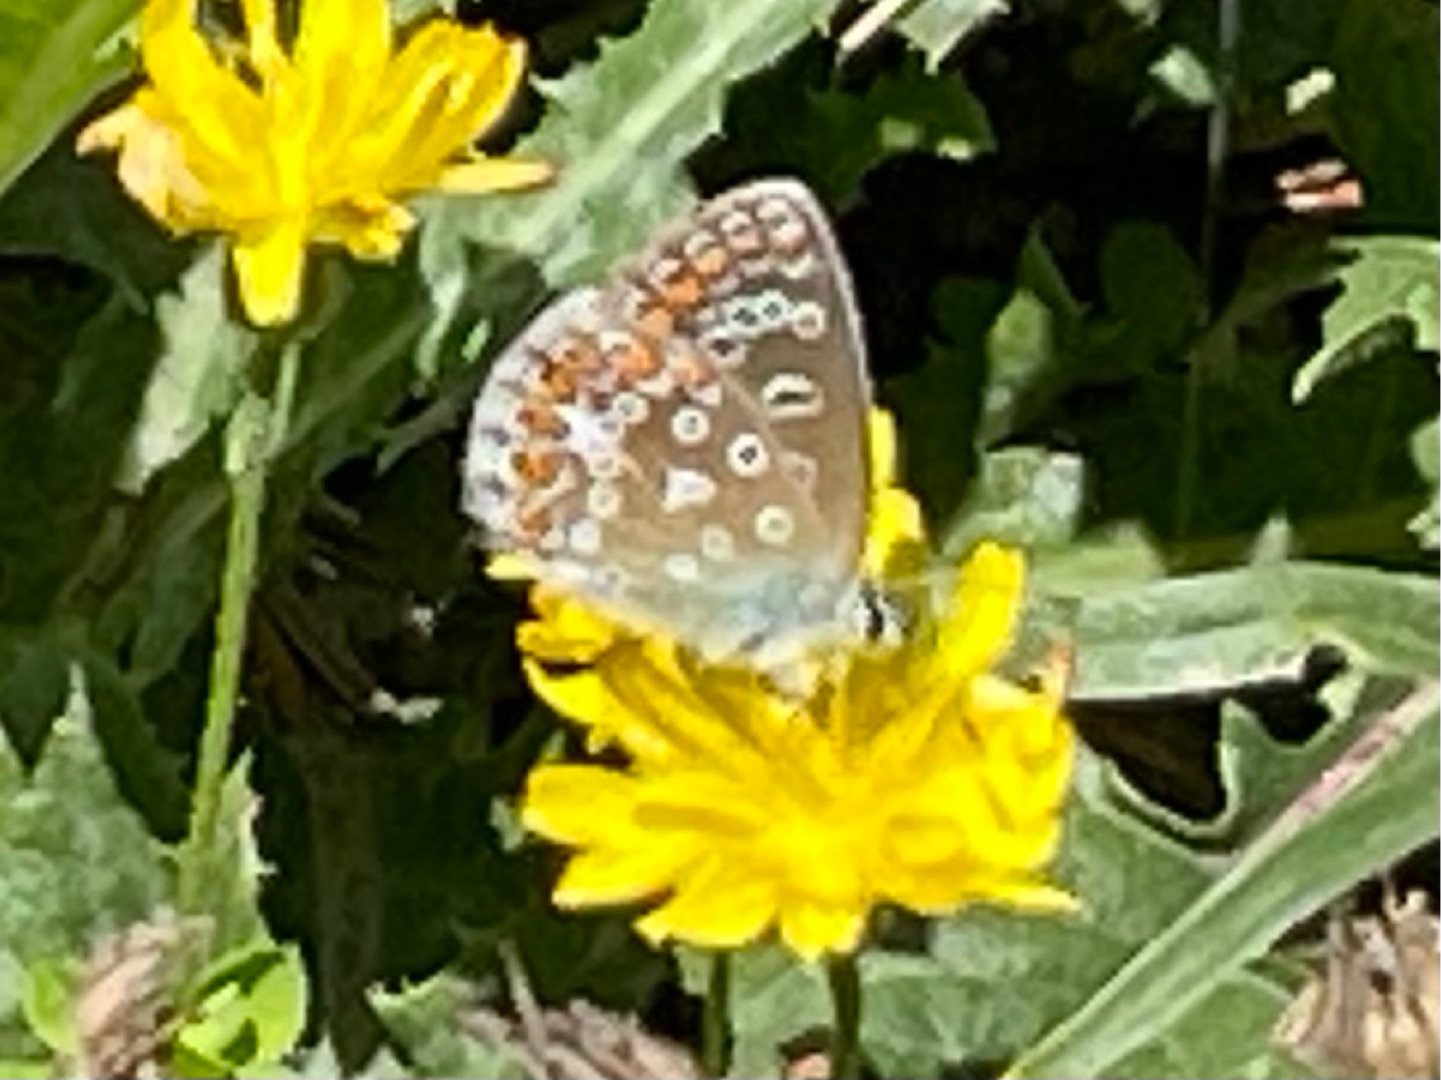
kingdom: Animalia
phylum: Arthropoda
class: Insecta
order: Lepidoptera
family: Lycaenidae
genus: Polyommatus
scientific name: Polyommatus icarus
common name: Almindelig blåfugl
